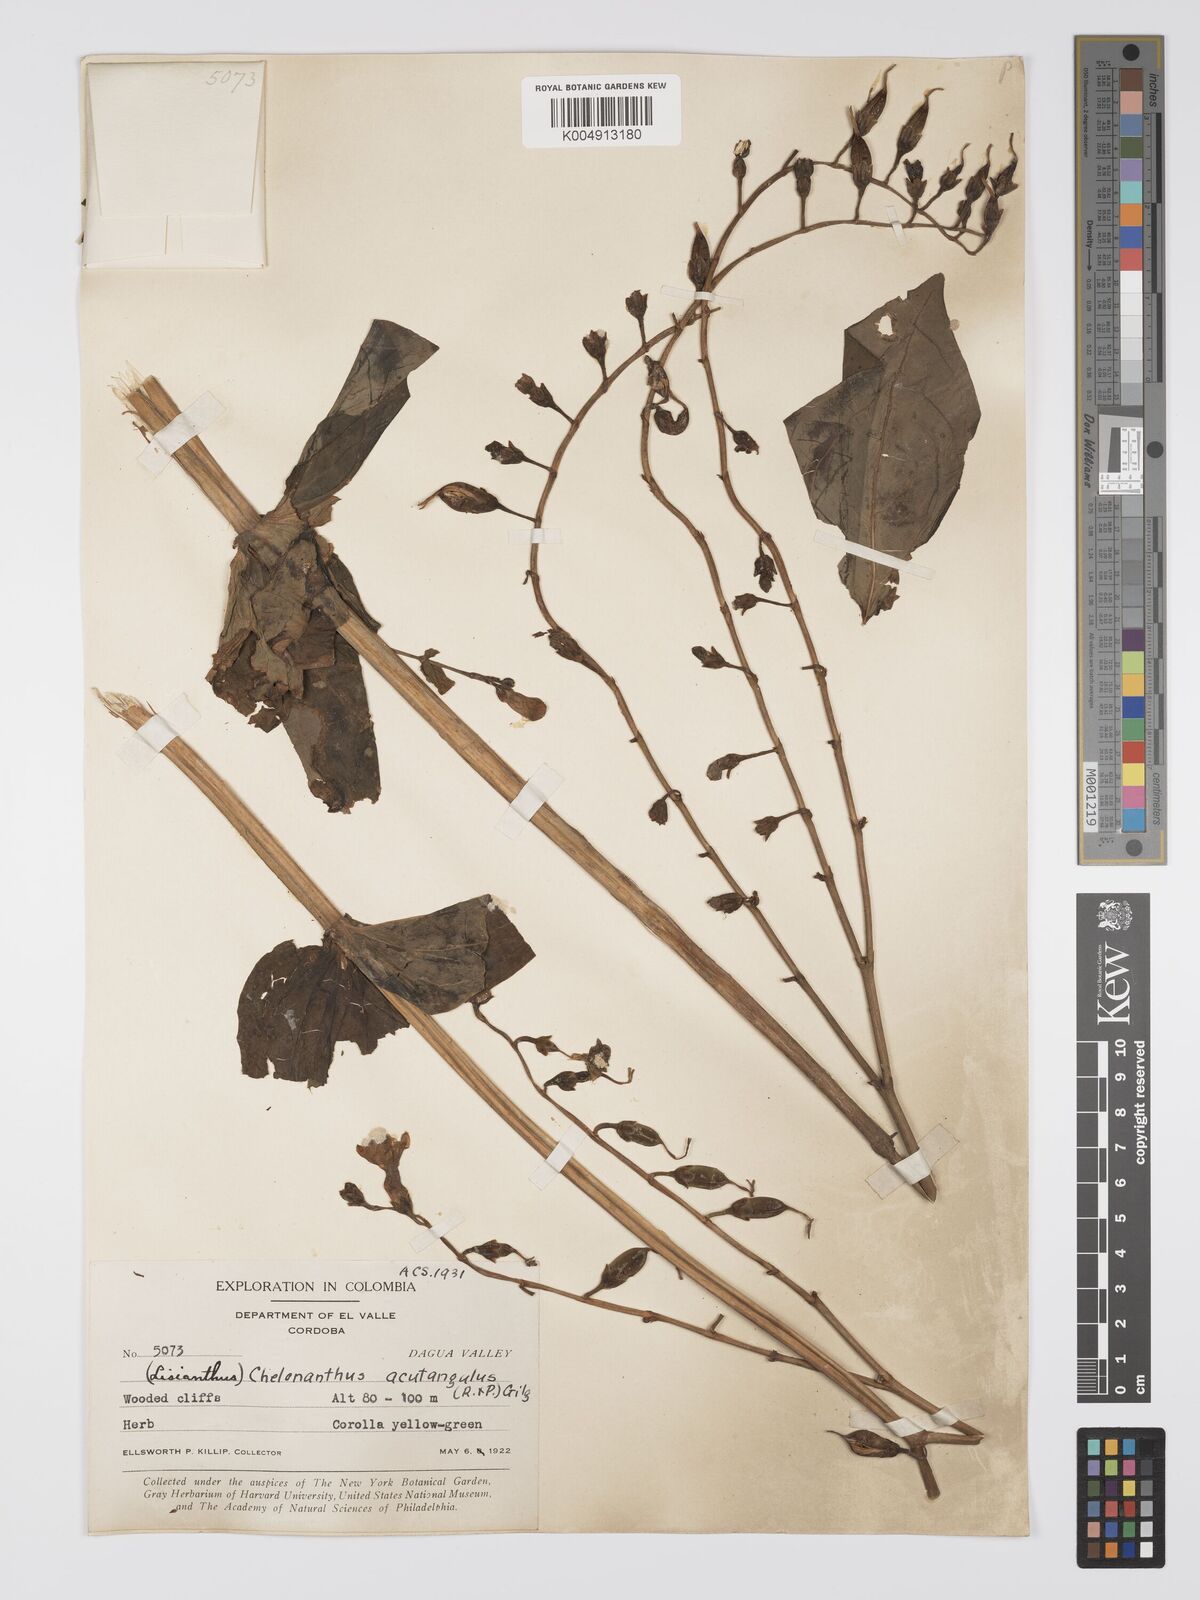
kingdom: Plantae
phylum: Tracheophyta
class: Magnoliopsida
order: Gentianales
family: Gentianaceae
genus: Chelonanthus
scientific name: Chelonanthus alatus
